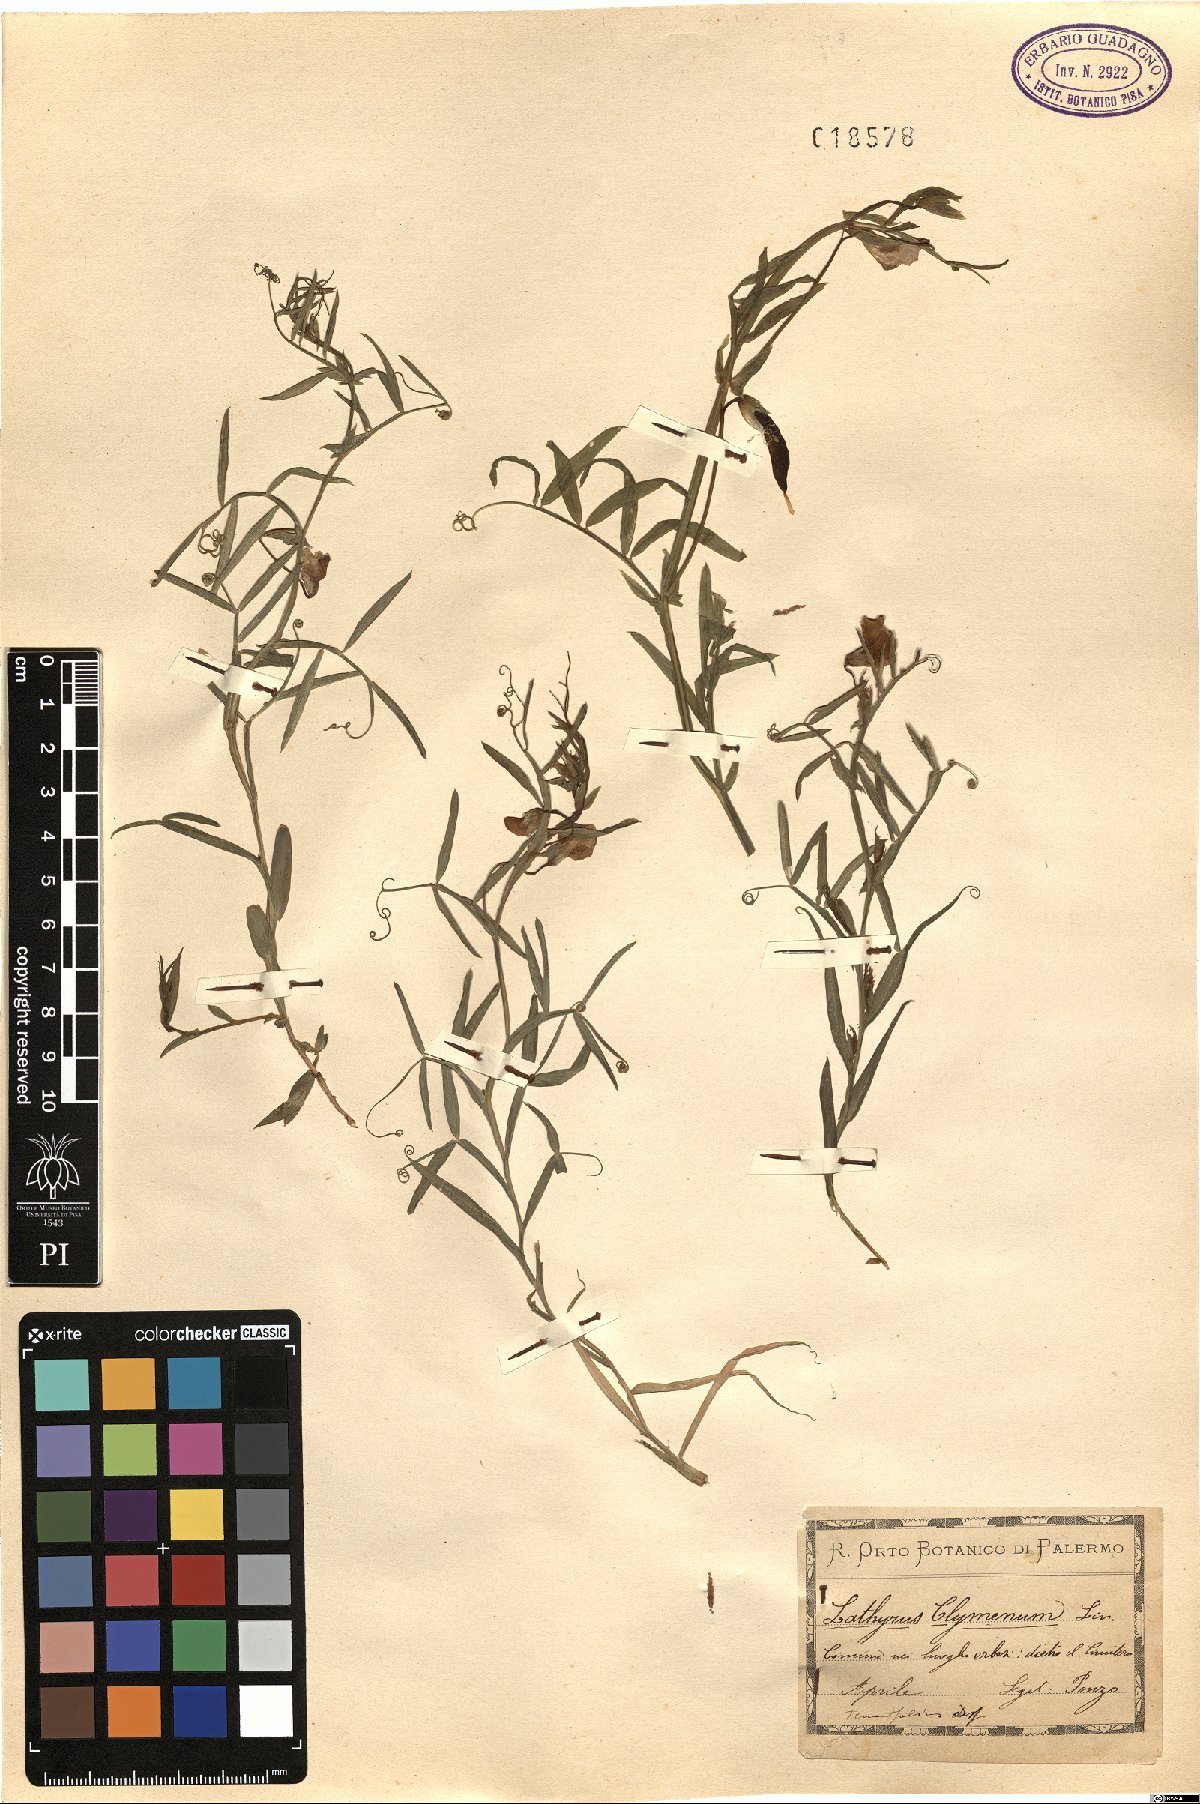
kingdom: Plantae
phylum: Tracheophyta
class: Magnoliopsida
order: Fabales
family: Fabaceae
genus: Lathyrus
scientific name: Lathyrus clymenum
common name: Spanish vetchling
